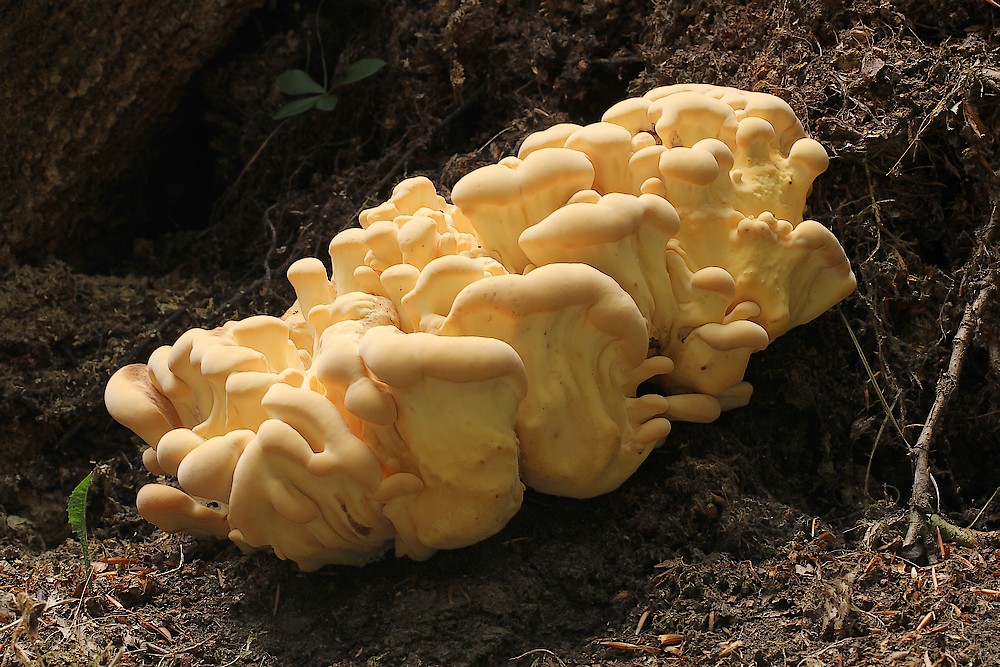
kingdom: Fungi
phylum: Basidiomycota
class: Agaricomycetes
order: Polyporales
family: Meripilaceae
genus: Meripilus
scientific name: Meripilus giganteus
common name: kæmpeporesvamp
